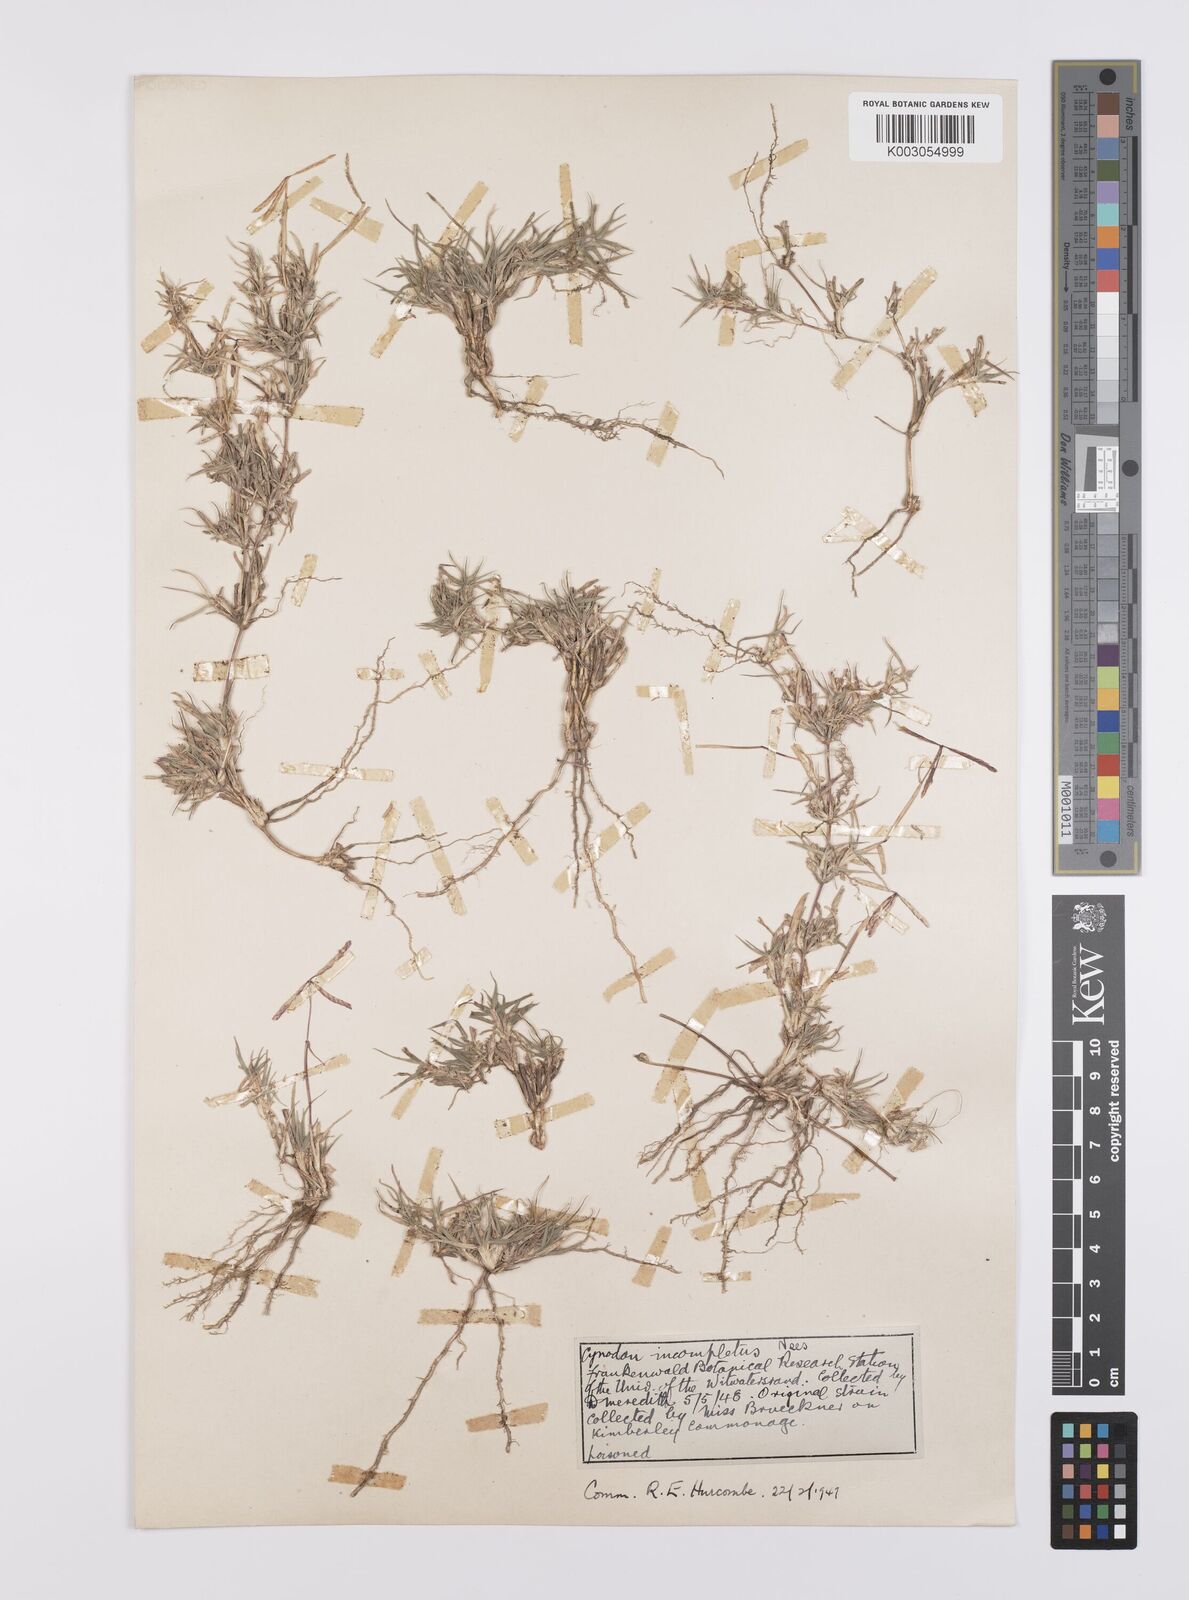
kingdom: Plantae
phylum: Tracheophyta
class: Liliopsida
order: Poales
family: Poaceae
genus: Cynodon
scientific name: Cynodon incompletus
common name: African bermuda-grass
